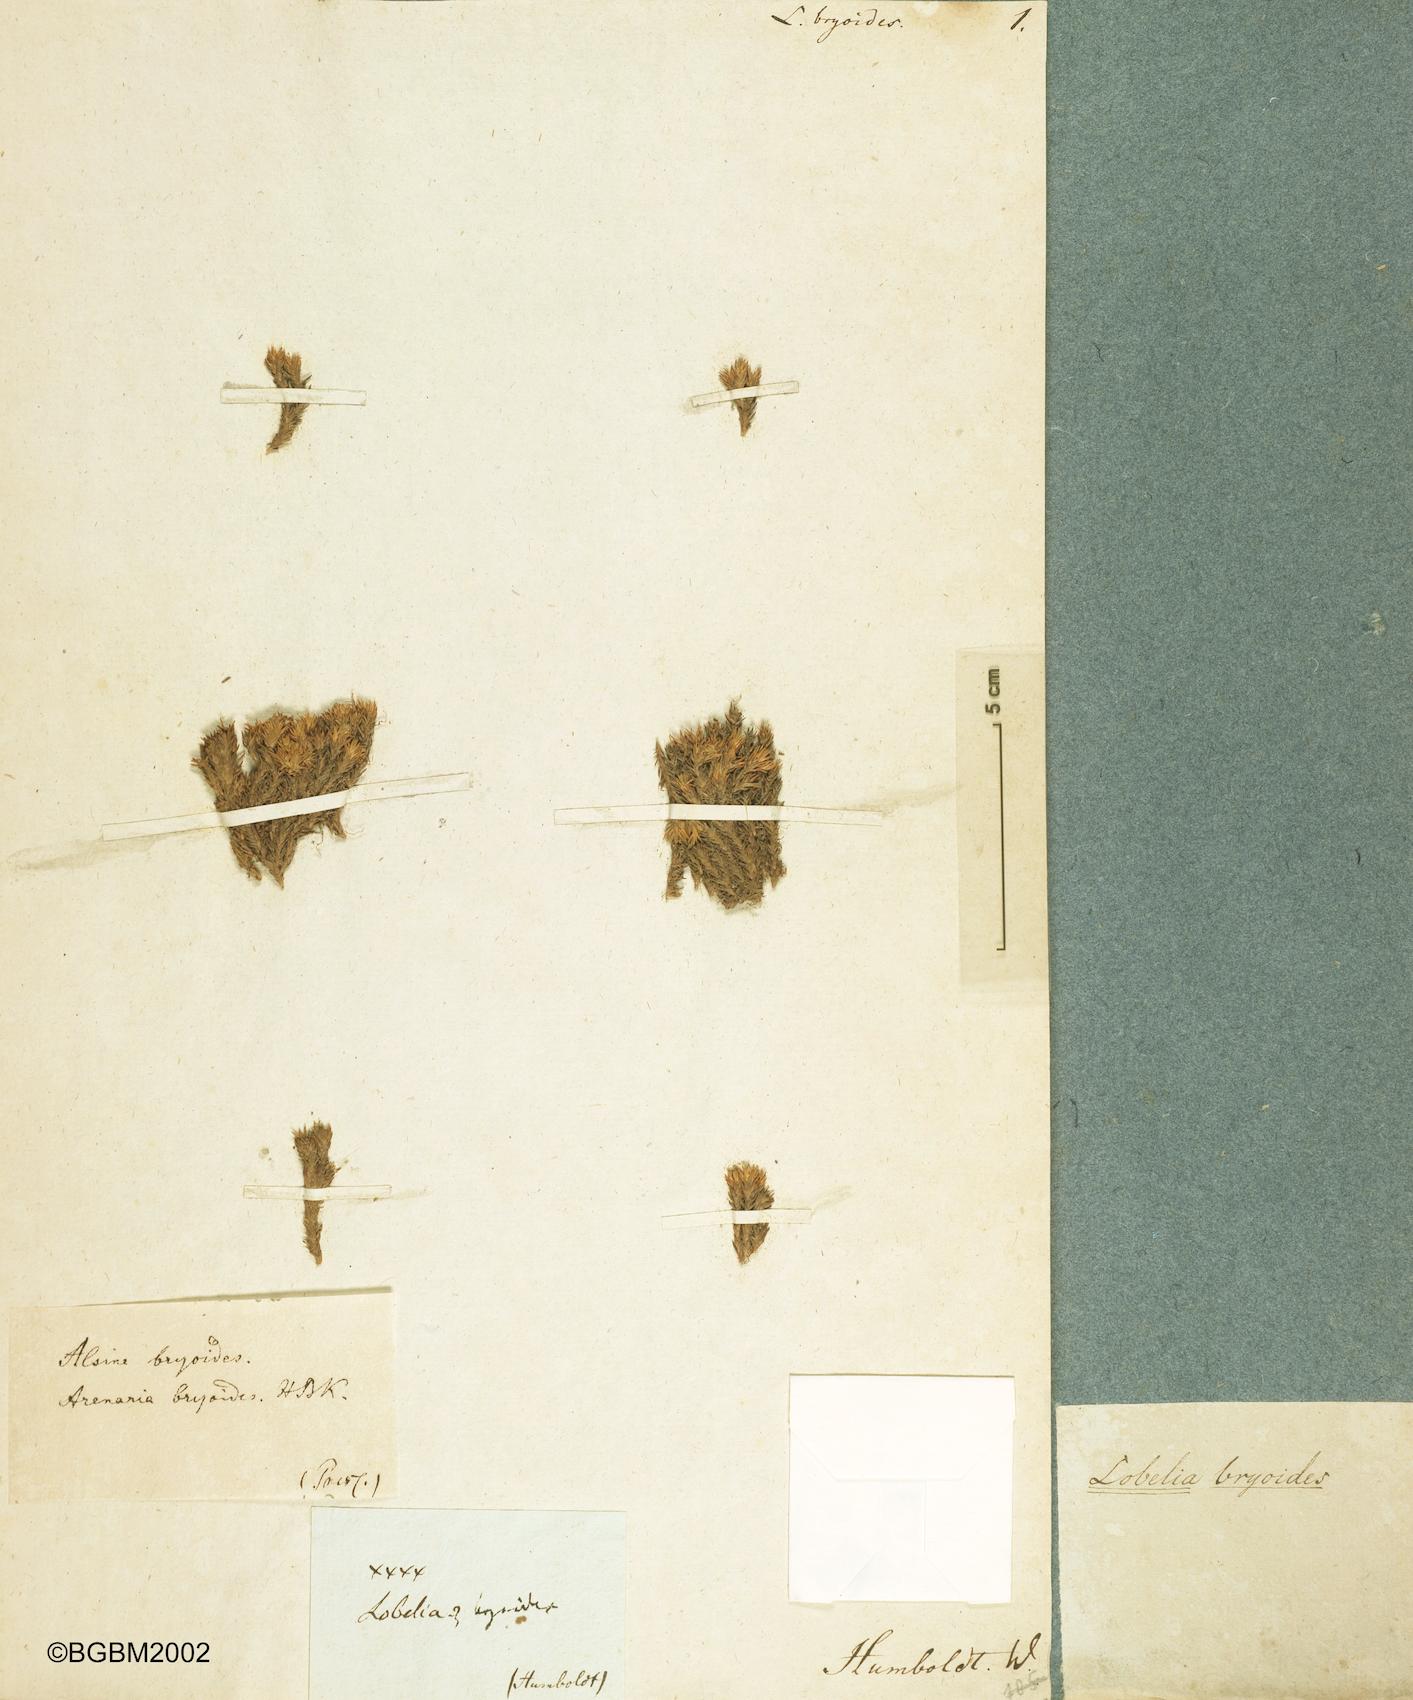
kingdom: Plantae
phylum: Tracheophyta
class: Magnoliopsida
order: Asterales
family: Campanulaceae
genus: Siphocampylus
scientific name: Siphocampylus cordatus
